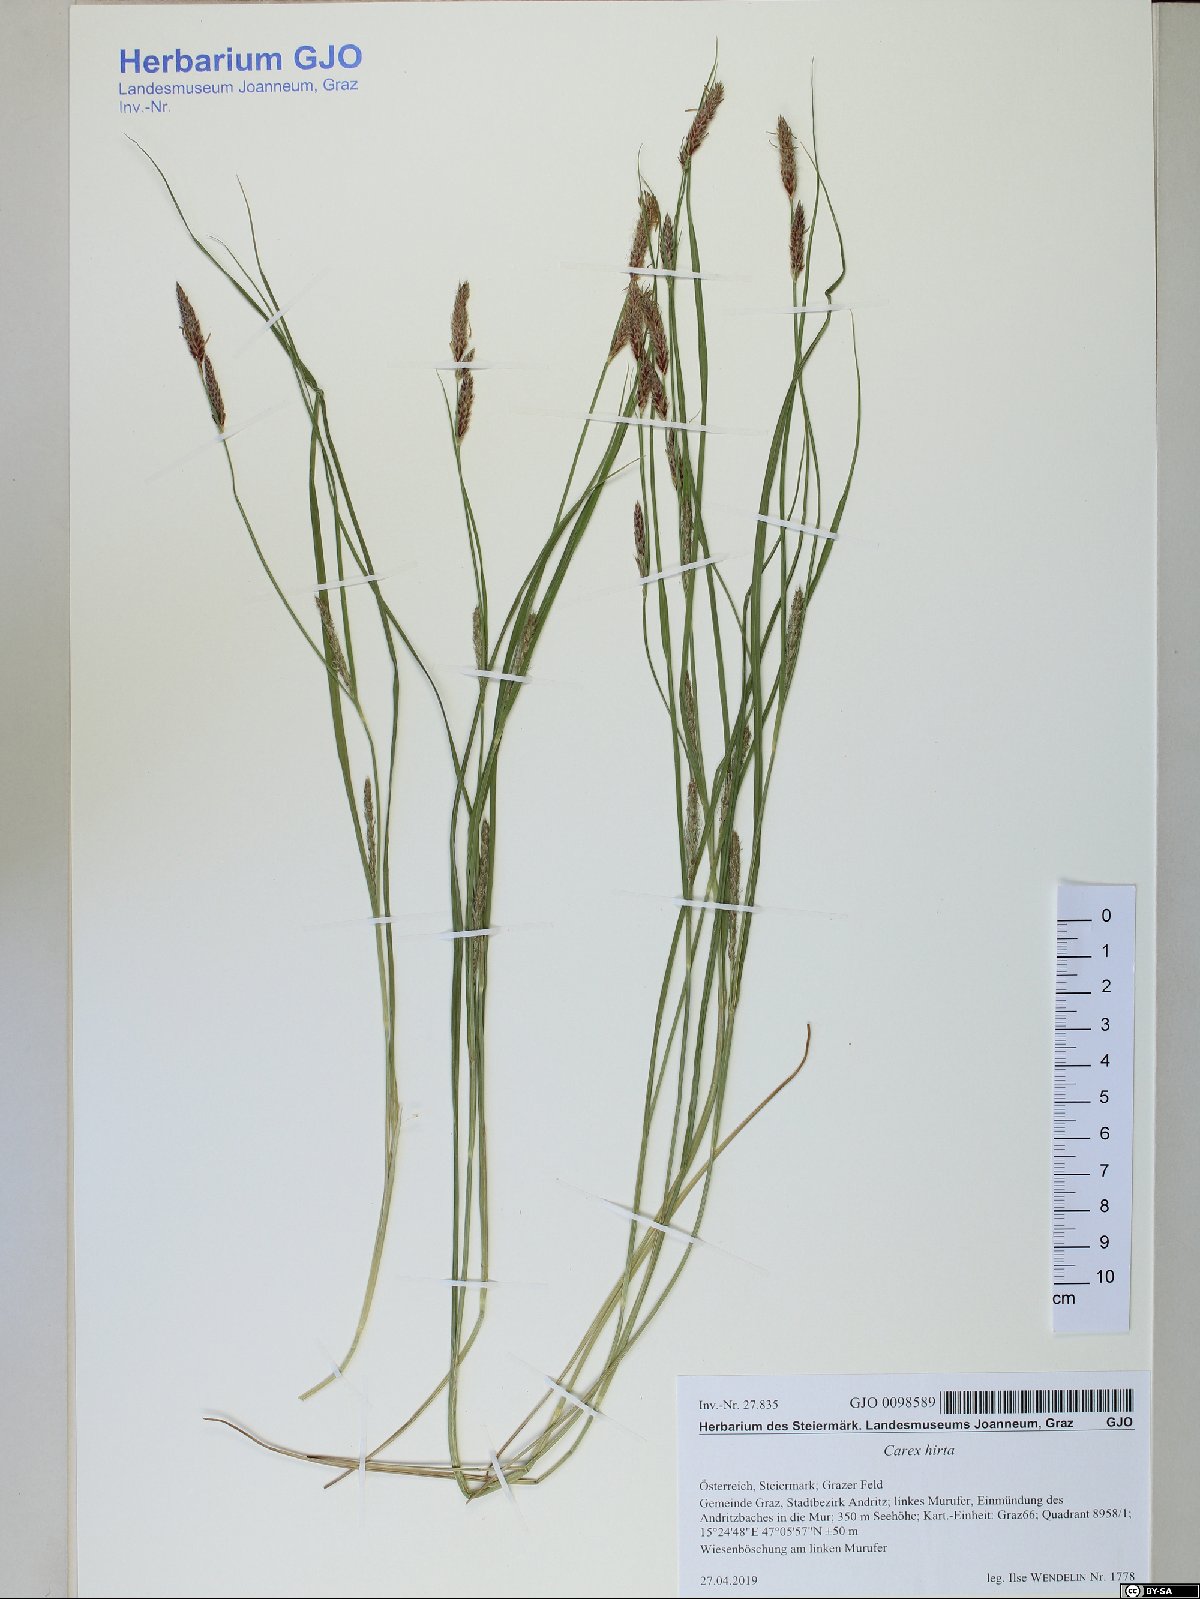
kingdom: Plantae
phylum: Tracheophyta
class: Liliopsida
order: Poales
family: Cyperaceae
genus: Carex
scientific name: Carex hirta
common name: Hairy sedge
